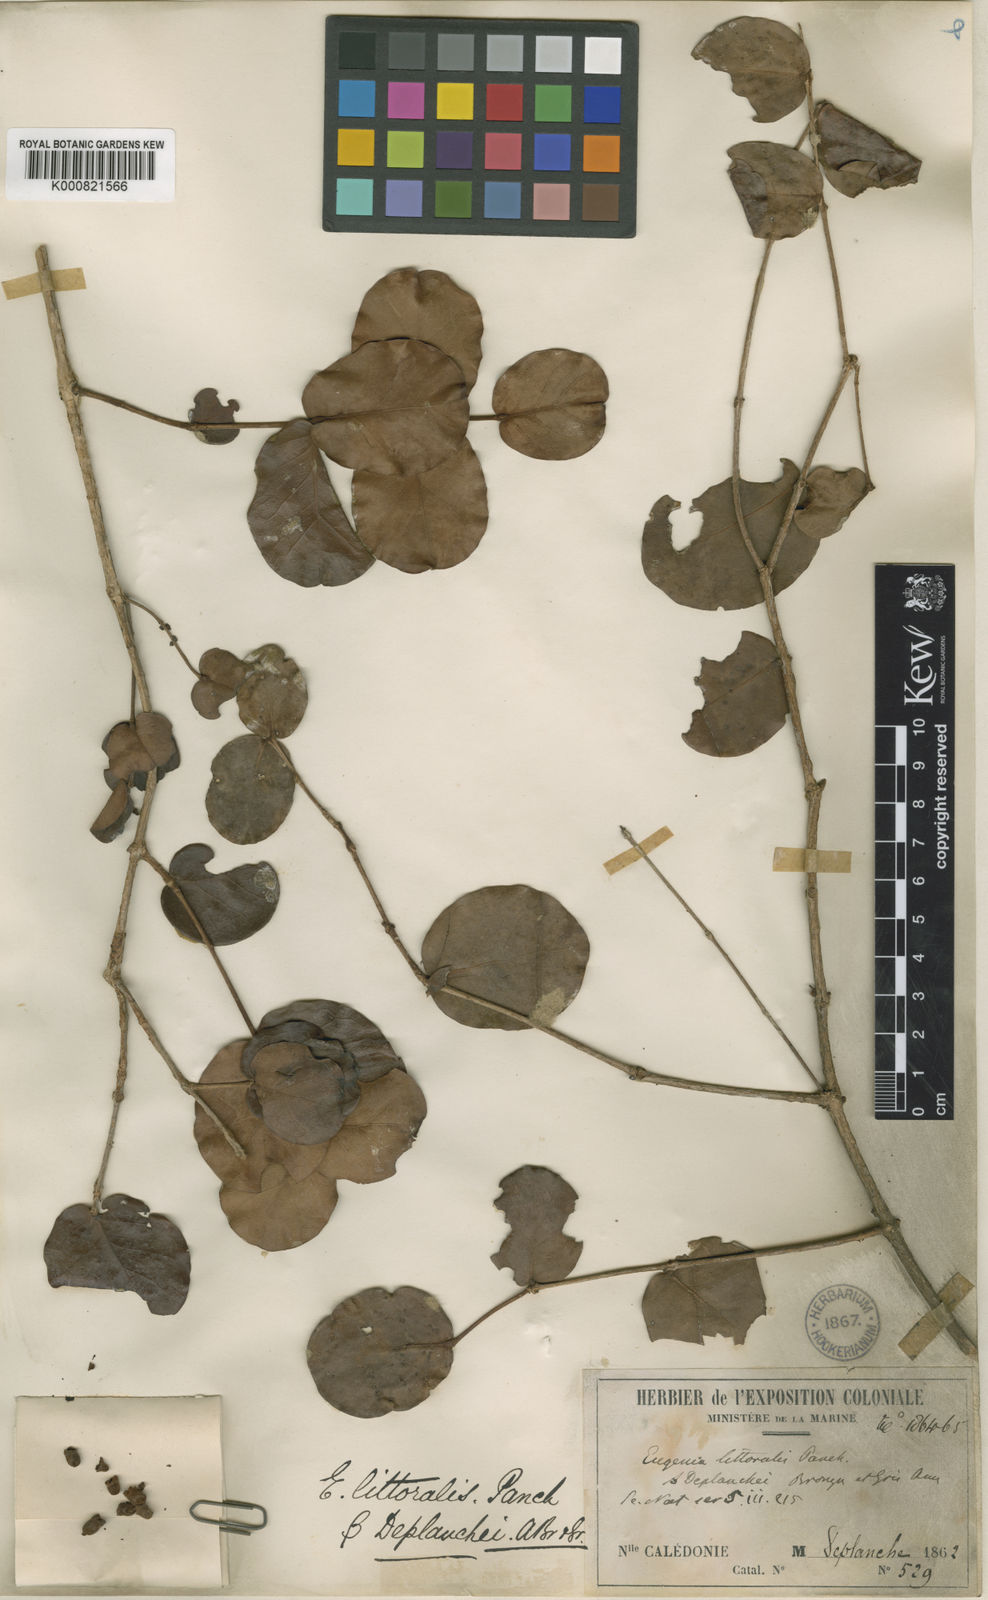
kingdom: Plantae
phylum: Tracheophyta
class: Magnoliopsida
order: Myrtales
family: Myrtaceae
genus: Eugenia
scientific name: Eugenia gacognei
